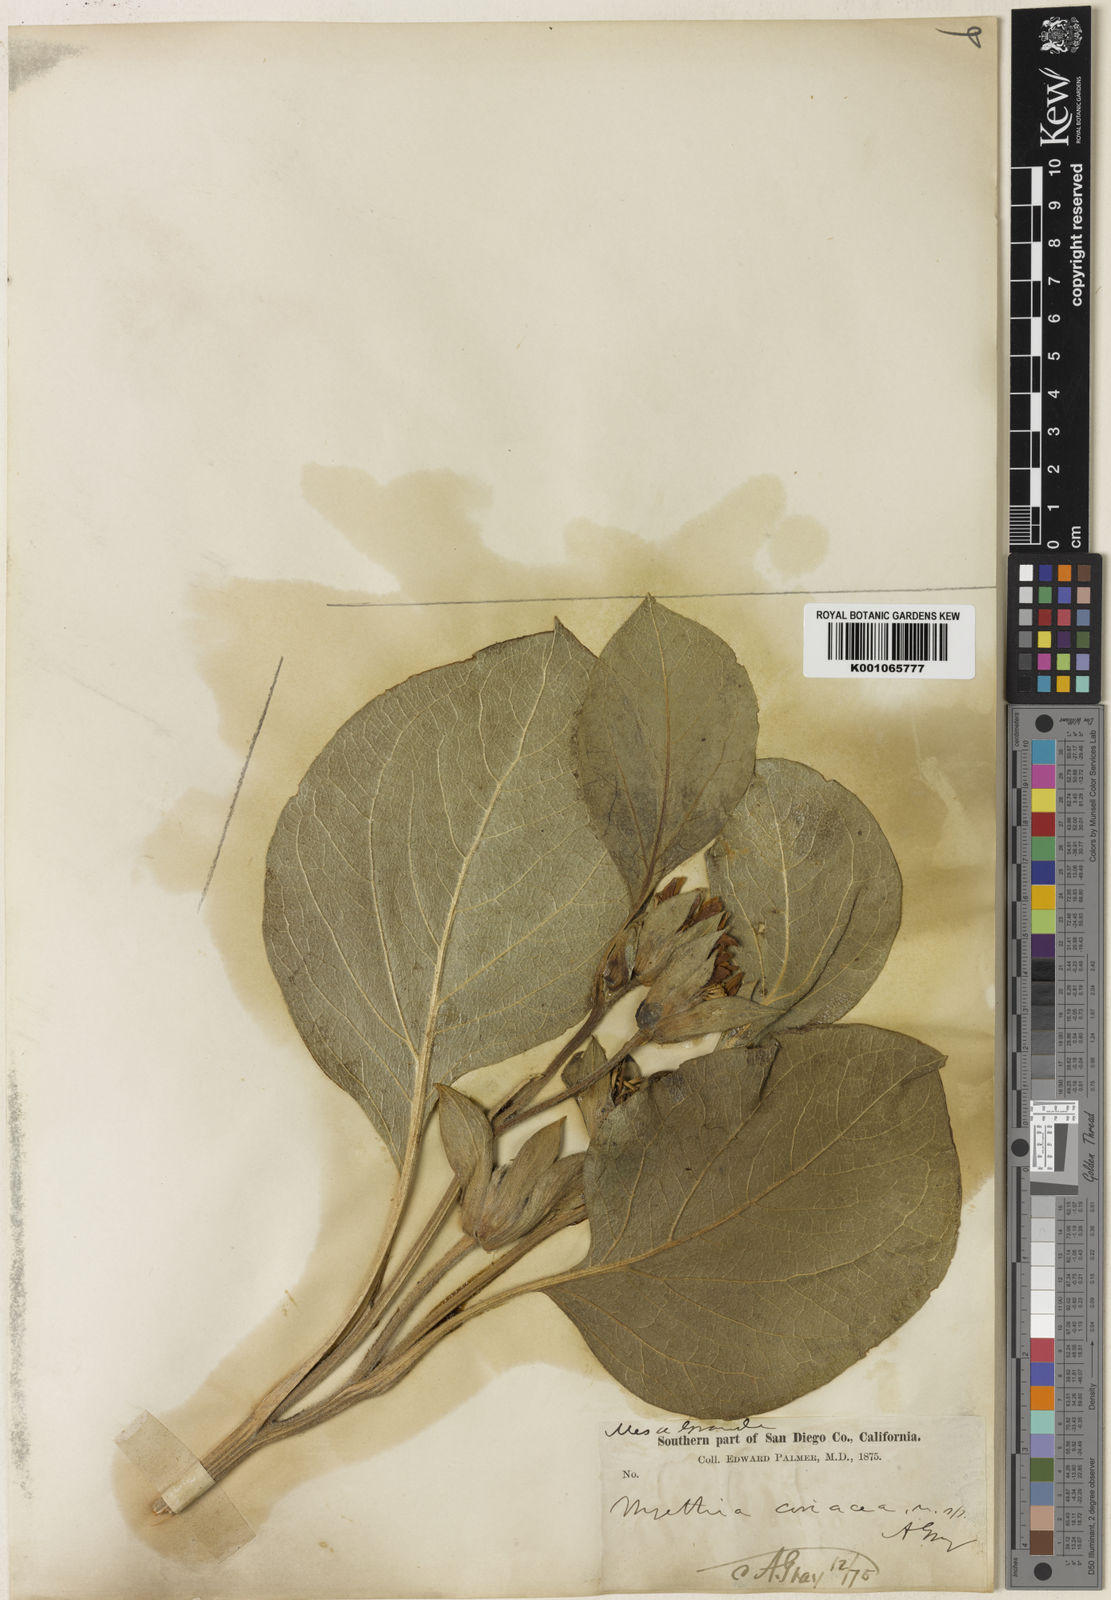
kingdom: Plantae
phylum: Tracheophyta
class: Magnoliopsida
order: Asterales
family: Asteraceae
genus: Agnorhiza
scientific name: Agnorhiza ovata
